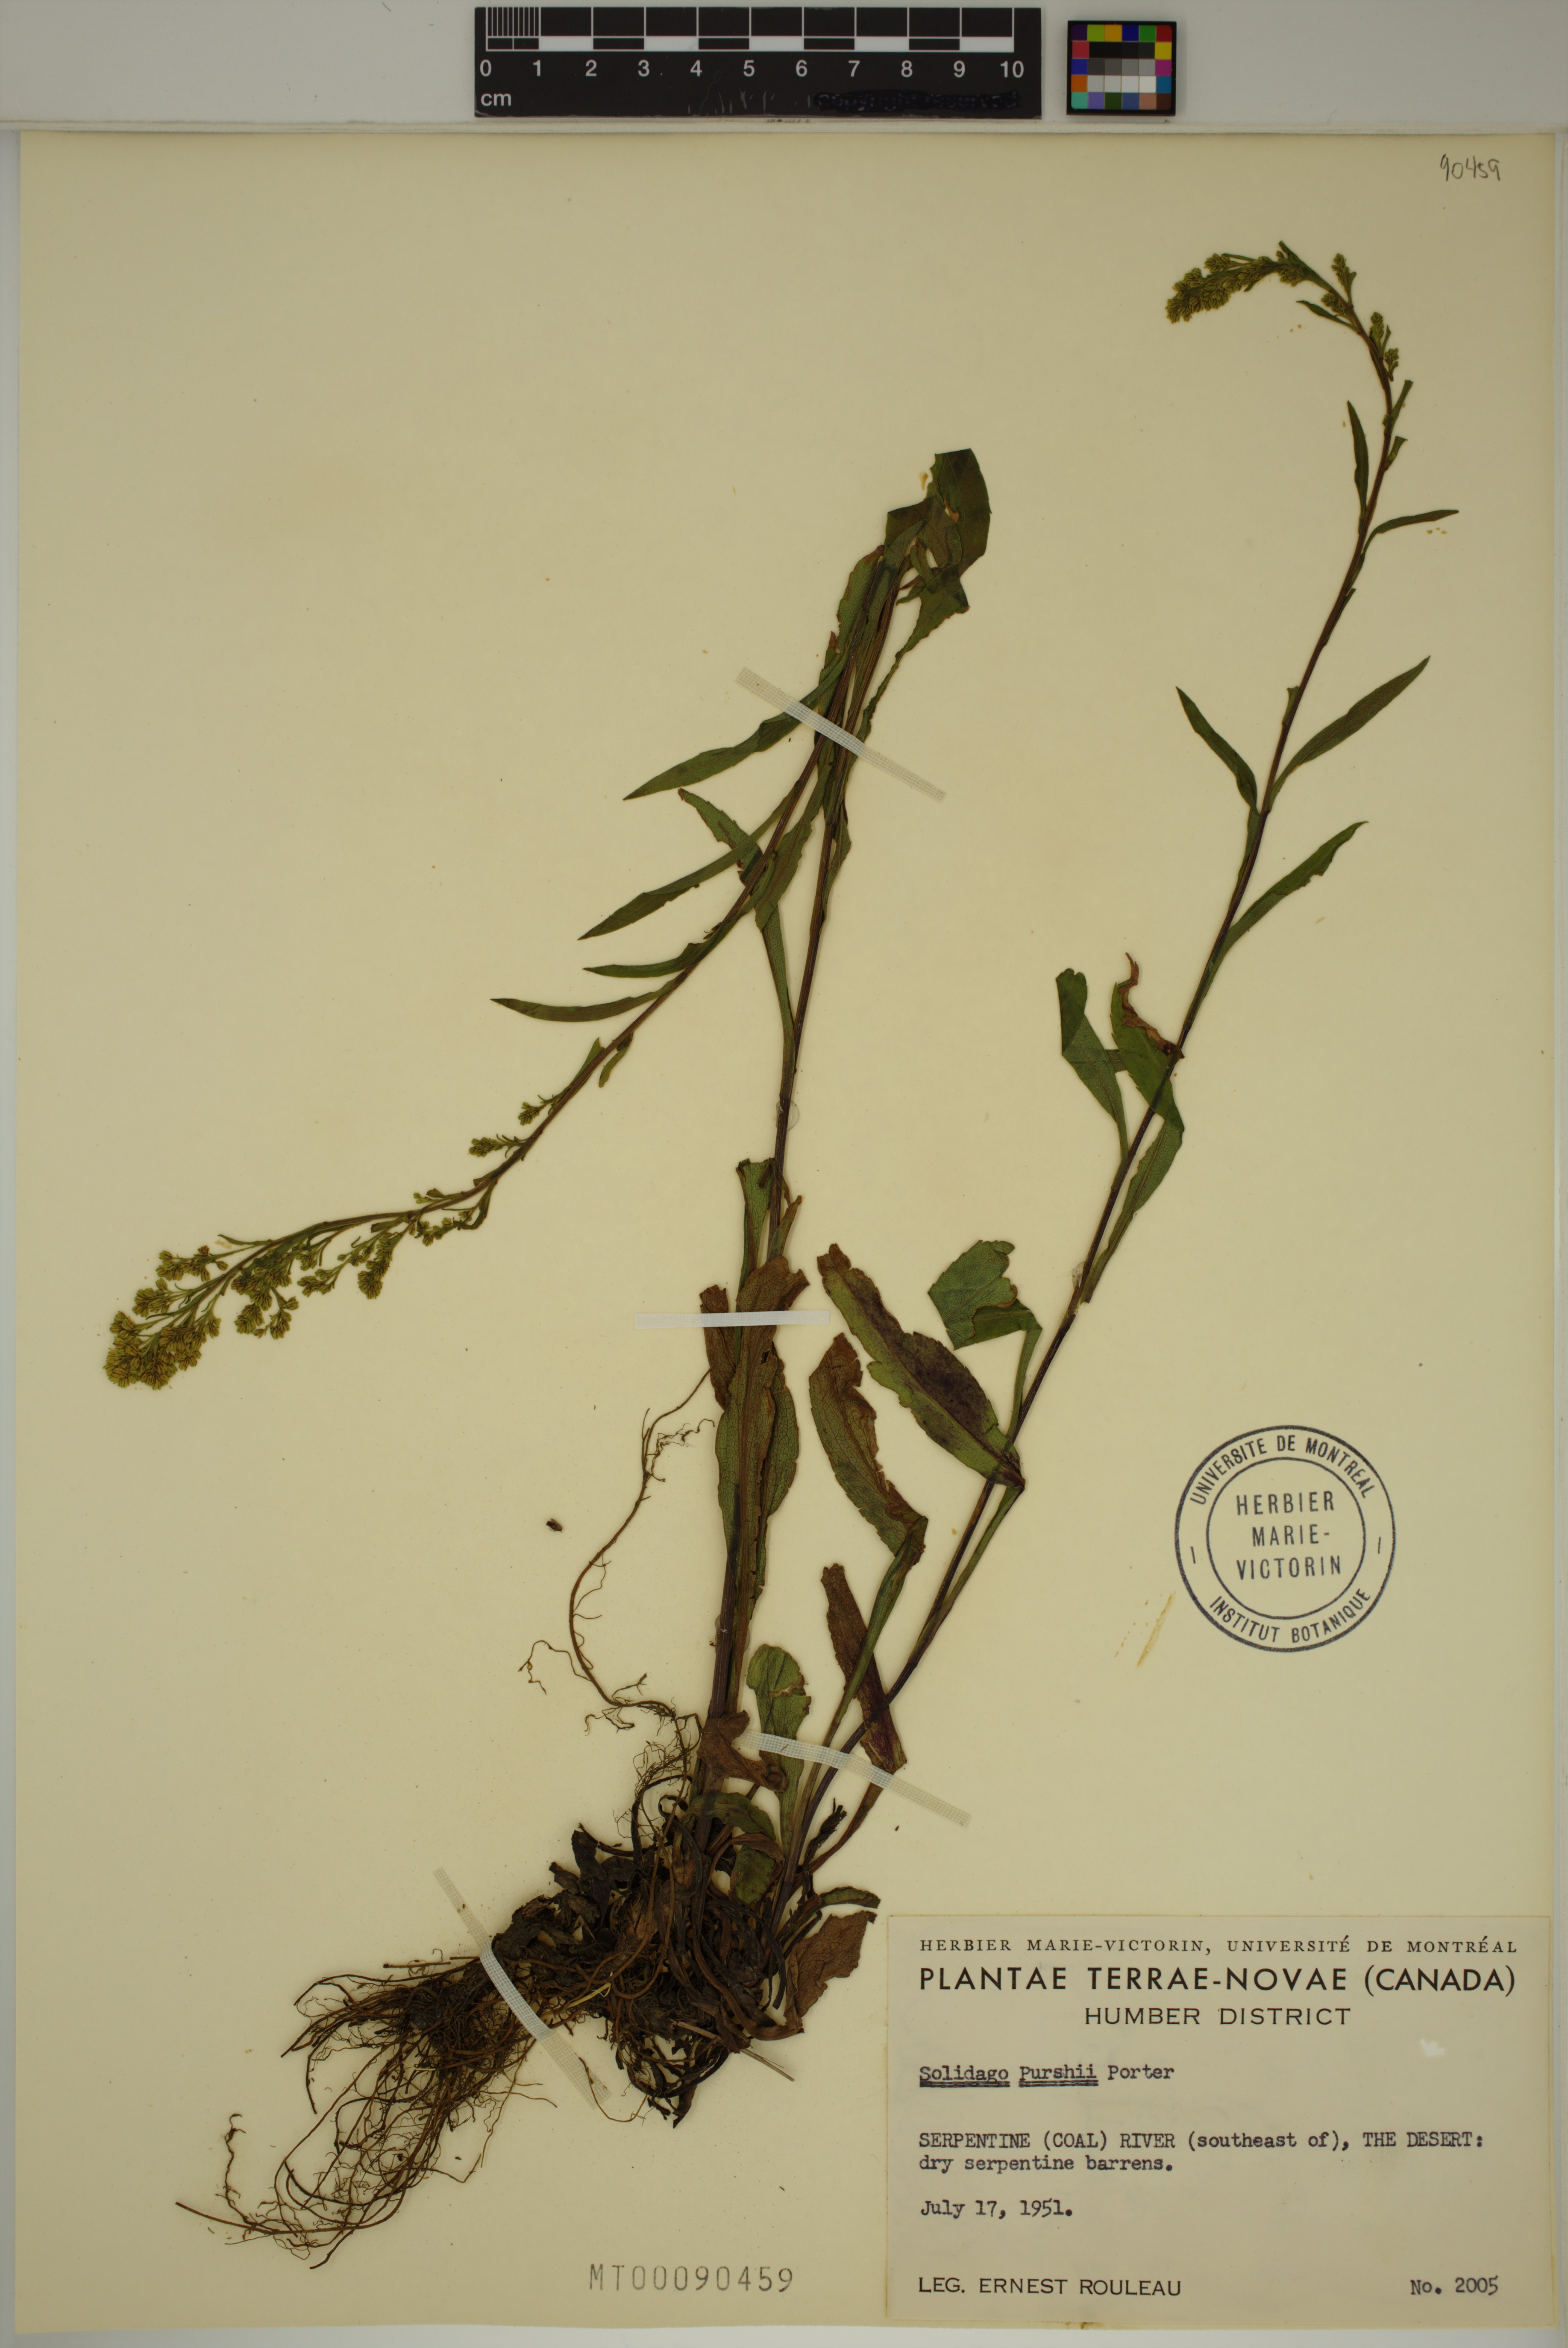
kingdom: Plantae
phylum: Tracheophyta
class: Magnoliopsida
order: Asterales
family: Asteraceae
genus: Solidago
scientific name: Solidago uliginosa
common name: Bog goldenrod
